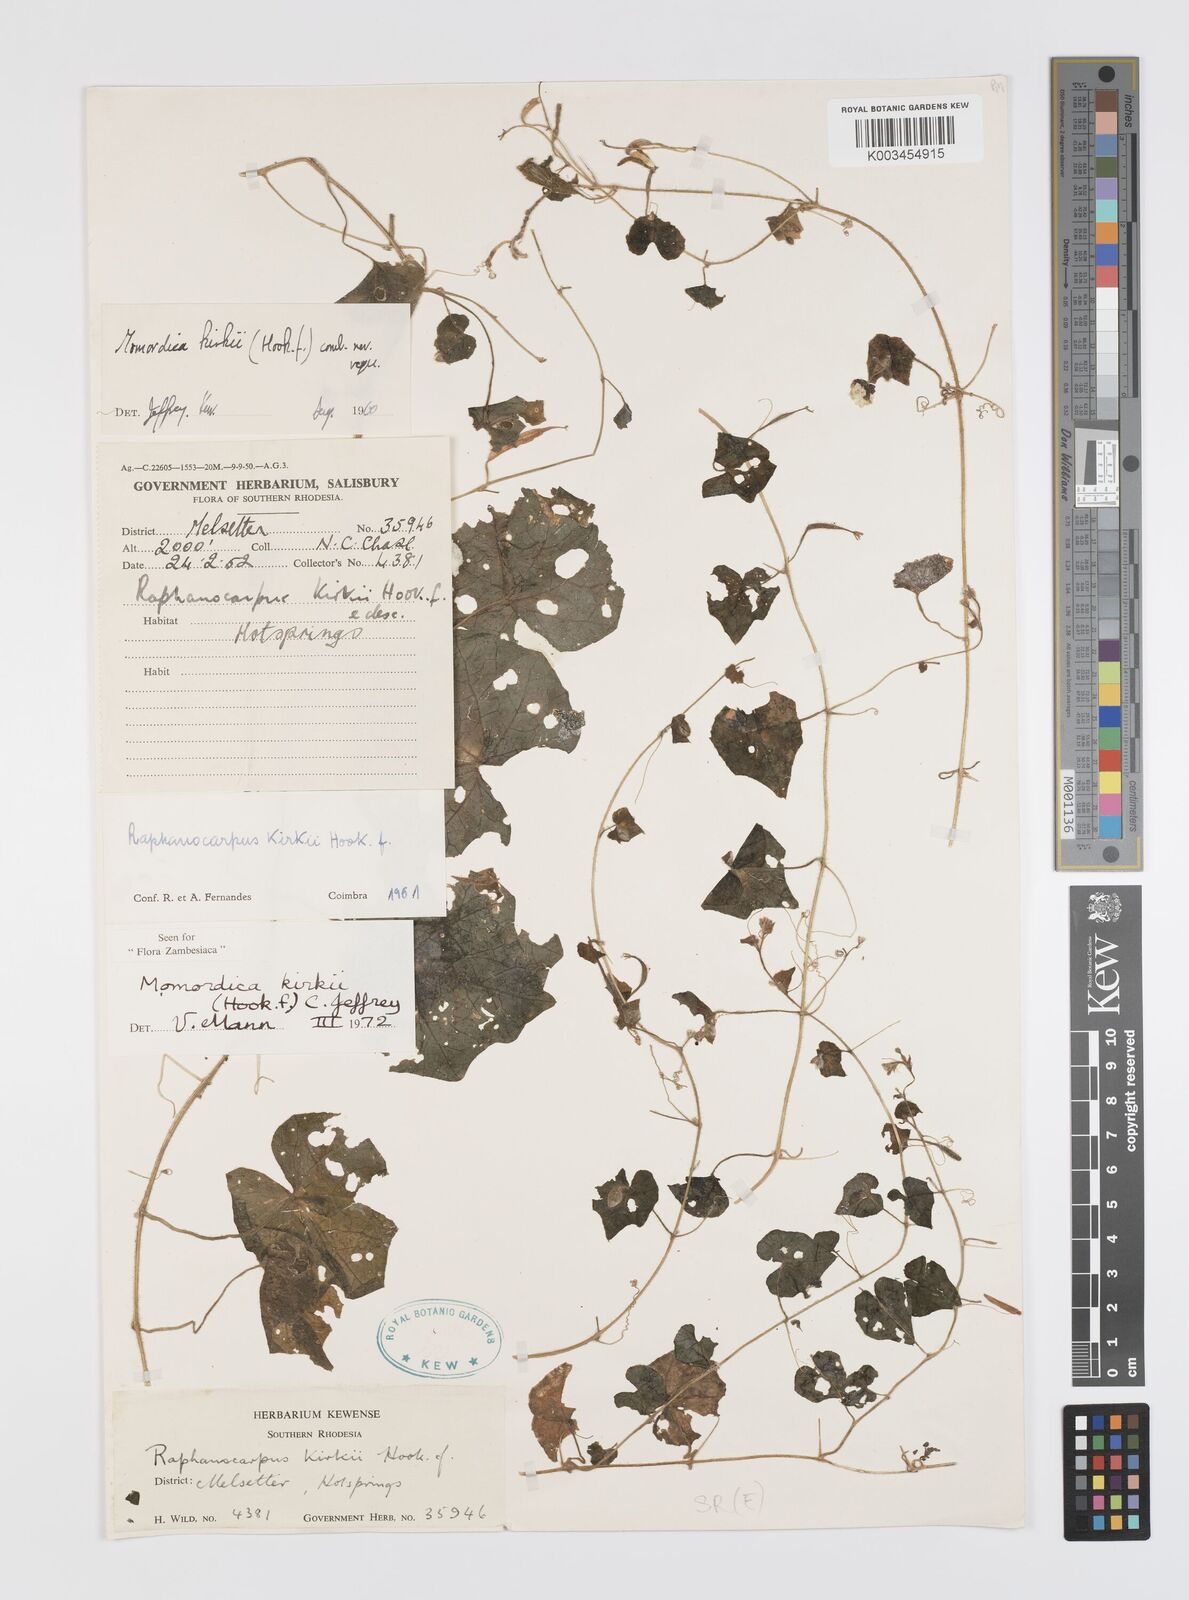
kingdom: Plantae
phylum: Tracheophyta
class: Magnoliopsida
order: Cucurbitales
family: Cucurbitaceae
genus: Momordica
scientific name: Momordica kirkii
